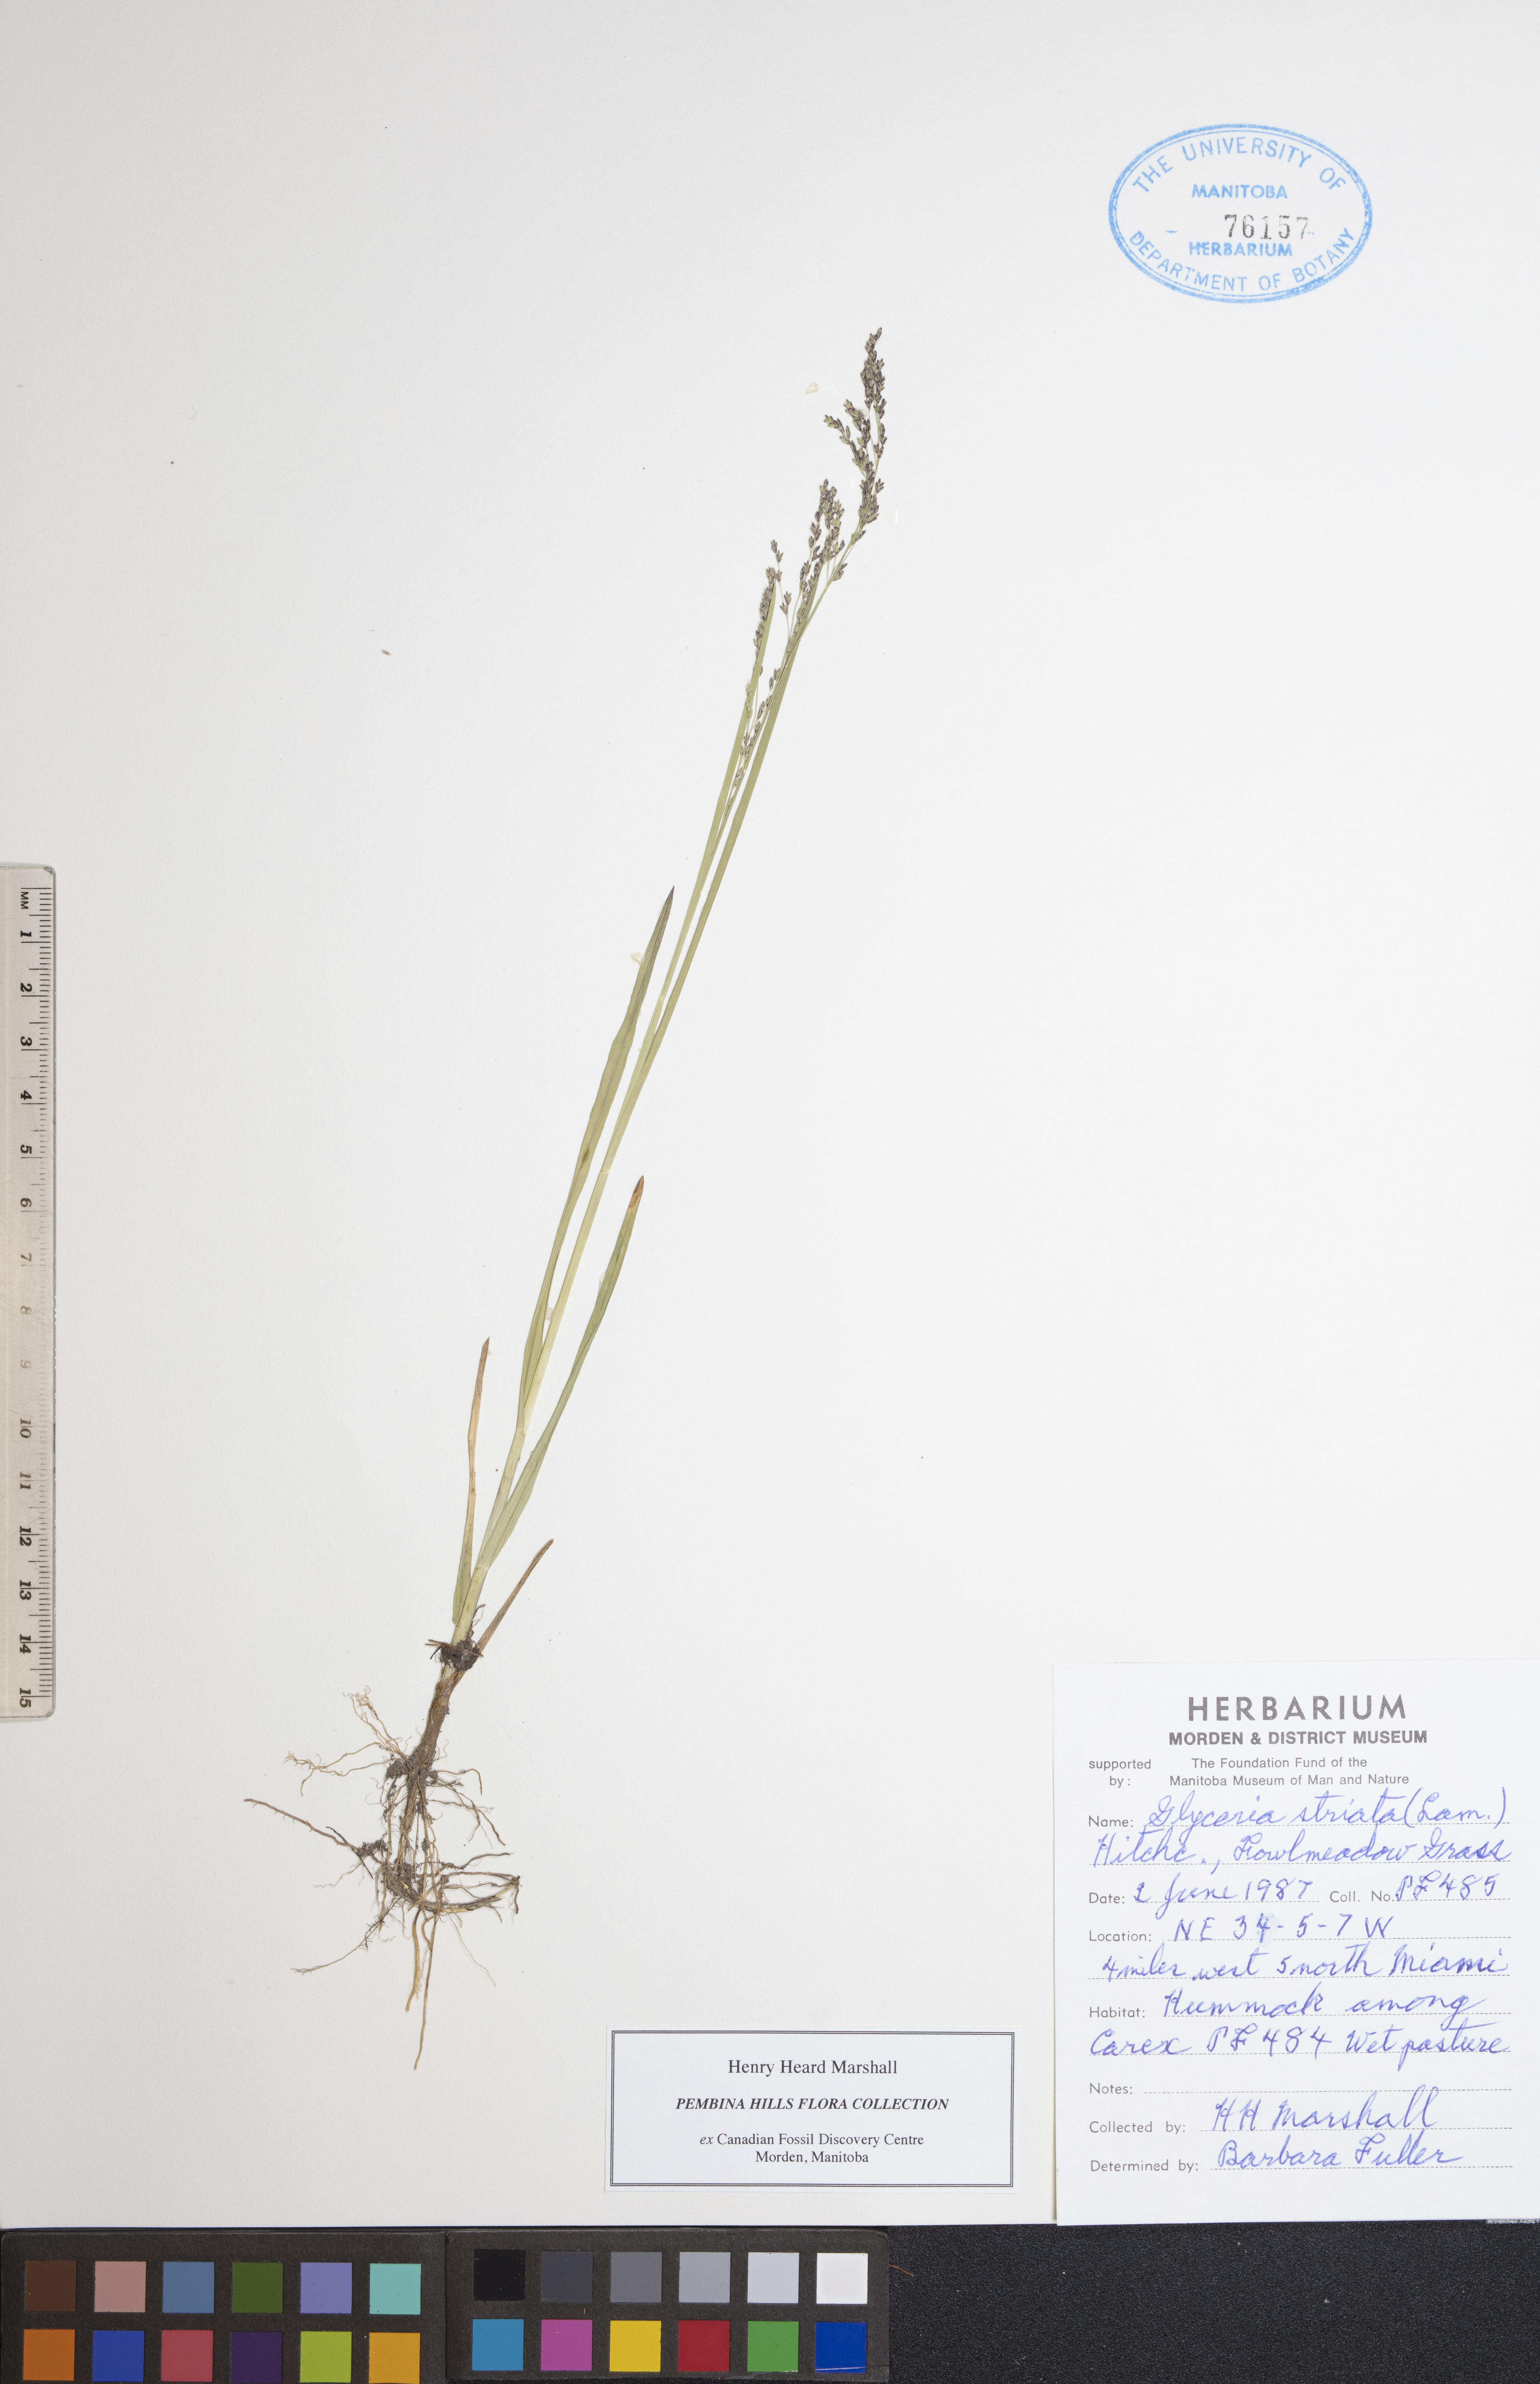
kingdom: Plantae
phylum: Tracheophyta
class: Liliopsida
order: Poales
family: Poaceae
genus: Glyceria
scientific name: Glyceria striata
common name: Fowl manna grass
